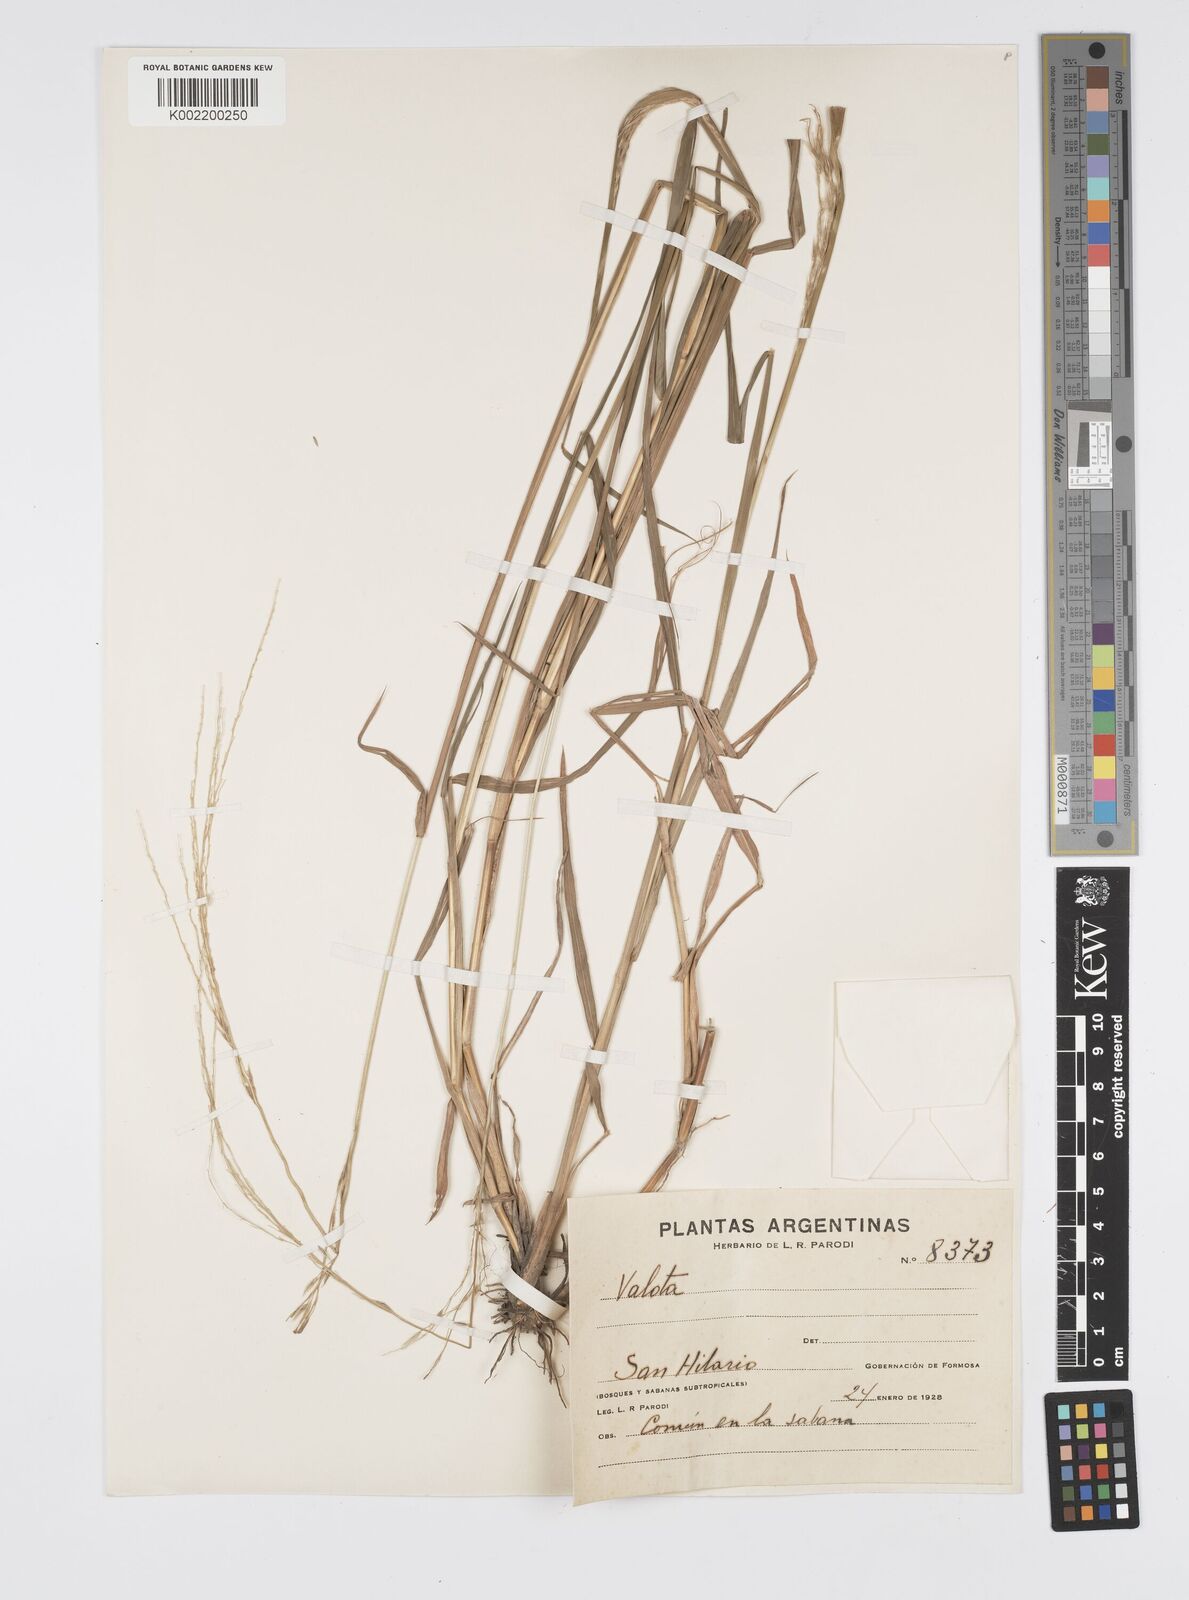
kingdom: Plantae
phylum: Tracheophyta
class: Liliopsida
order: Poales
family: Poaceae
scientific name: Poaceae
